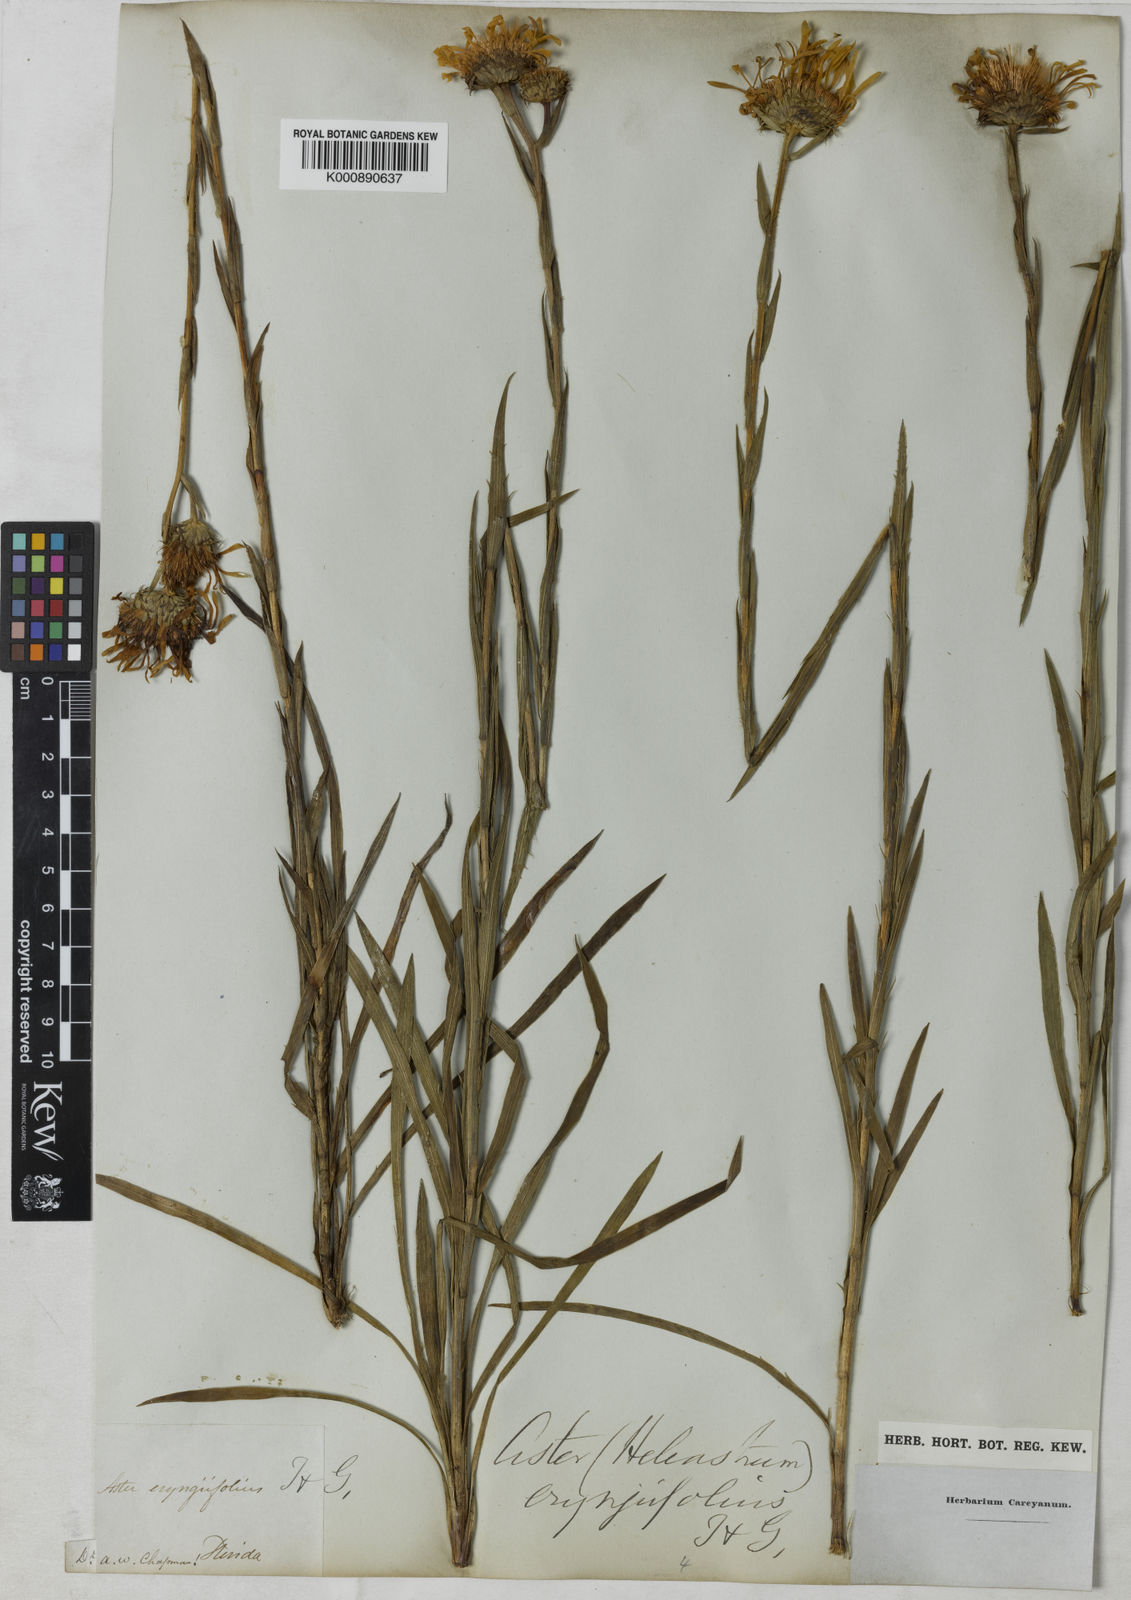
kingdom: Plantae
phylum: Tracheophyta
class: Magnoliopsida
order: Asterales
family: Asteraceae
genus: Eurybia
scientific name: Eurybia eryngiifolia
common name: Thistle-leaf aster
